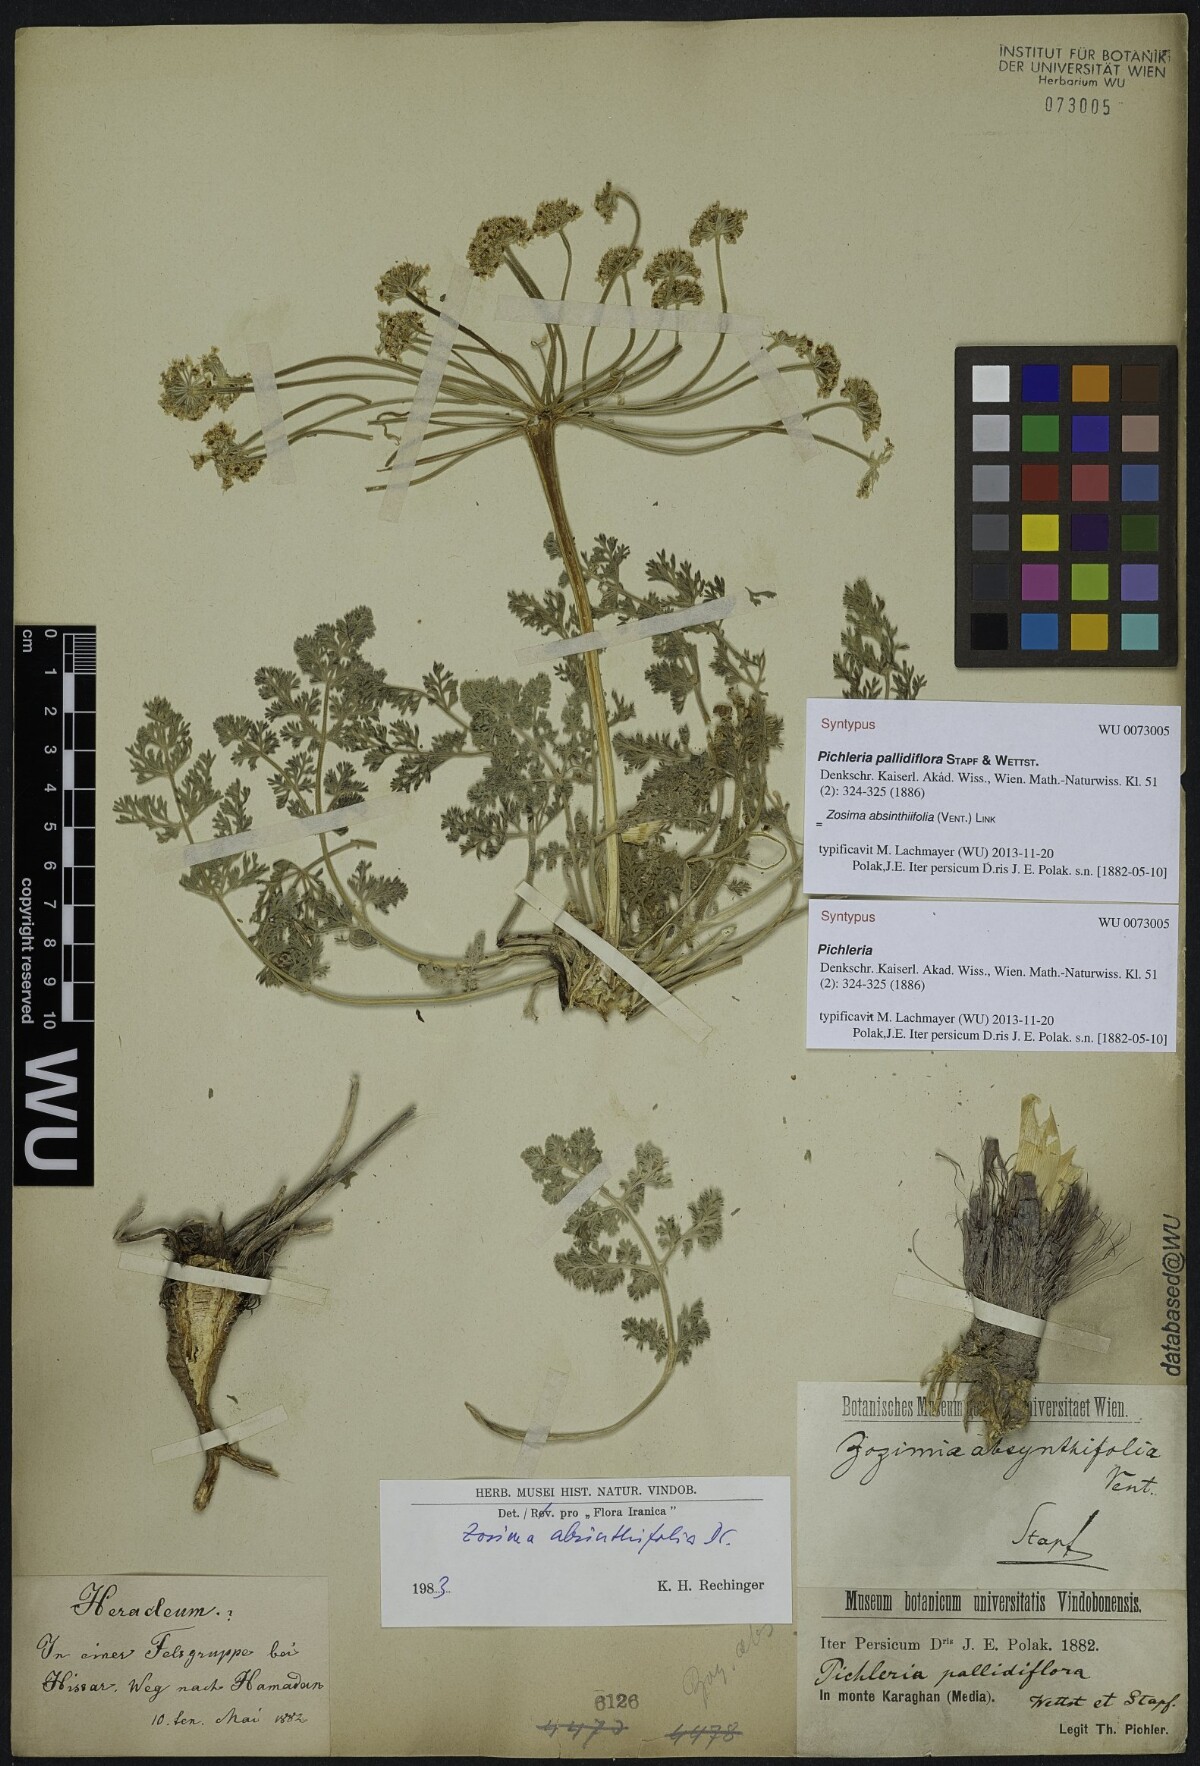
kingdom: Plantae
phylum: Tracheophyta
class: Magnoliopsida
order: Apiales
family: Apiaceae
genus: Zosima
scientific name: Zosima absinthiifolia
